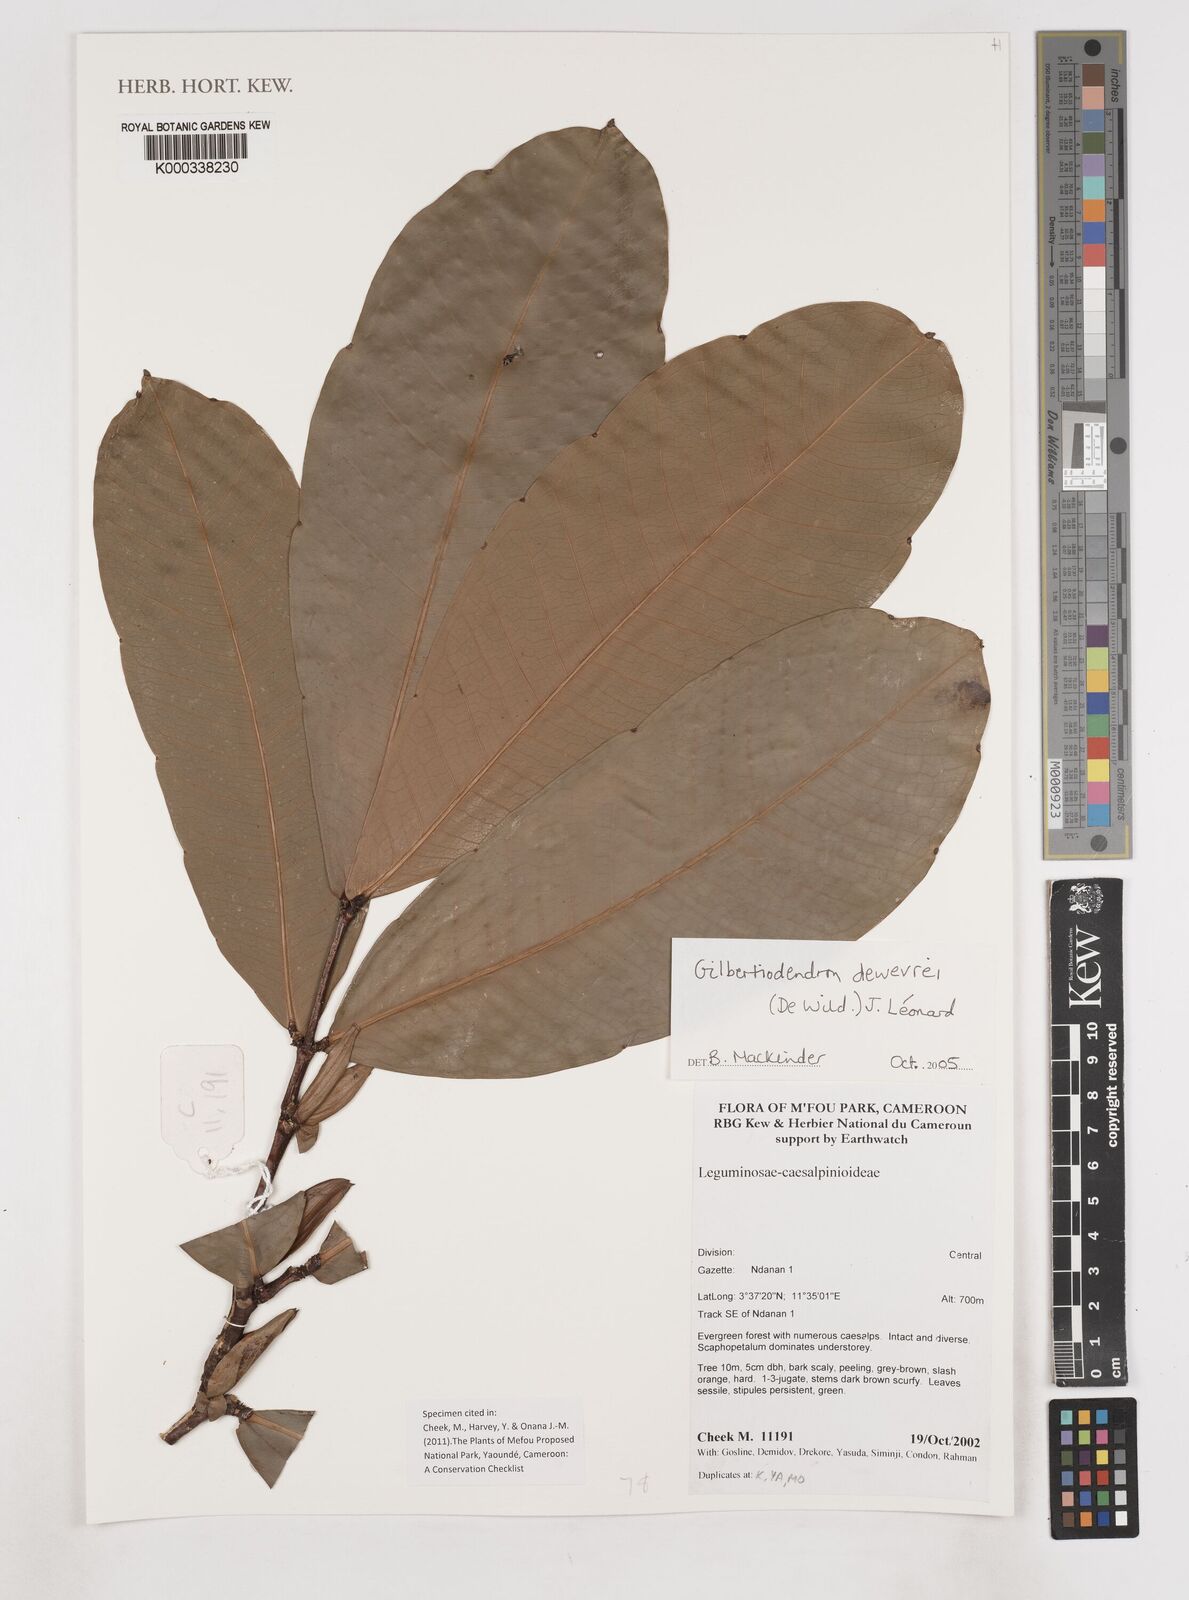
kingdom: Plantae
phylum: Tracheophyta
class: Magnoliopsida
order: Fabales
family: Fabaceae
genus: Gilbertiodendron
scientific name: Gilbertiodendron
